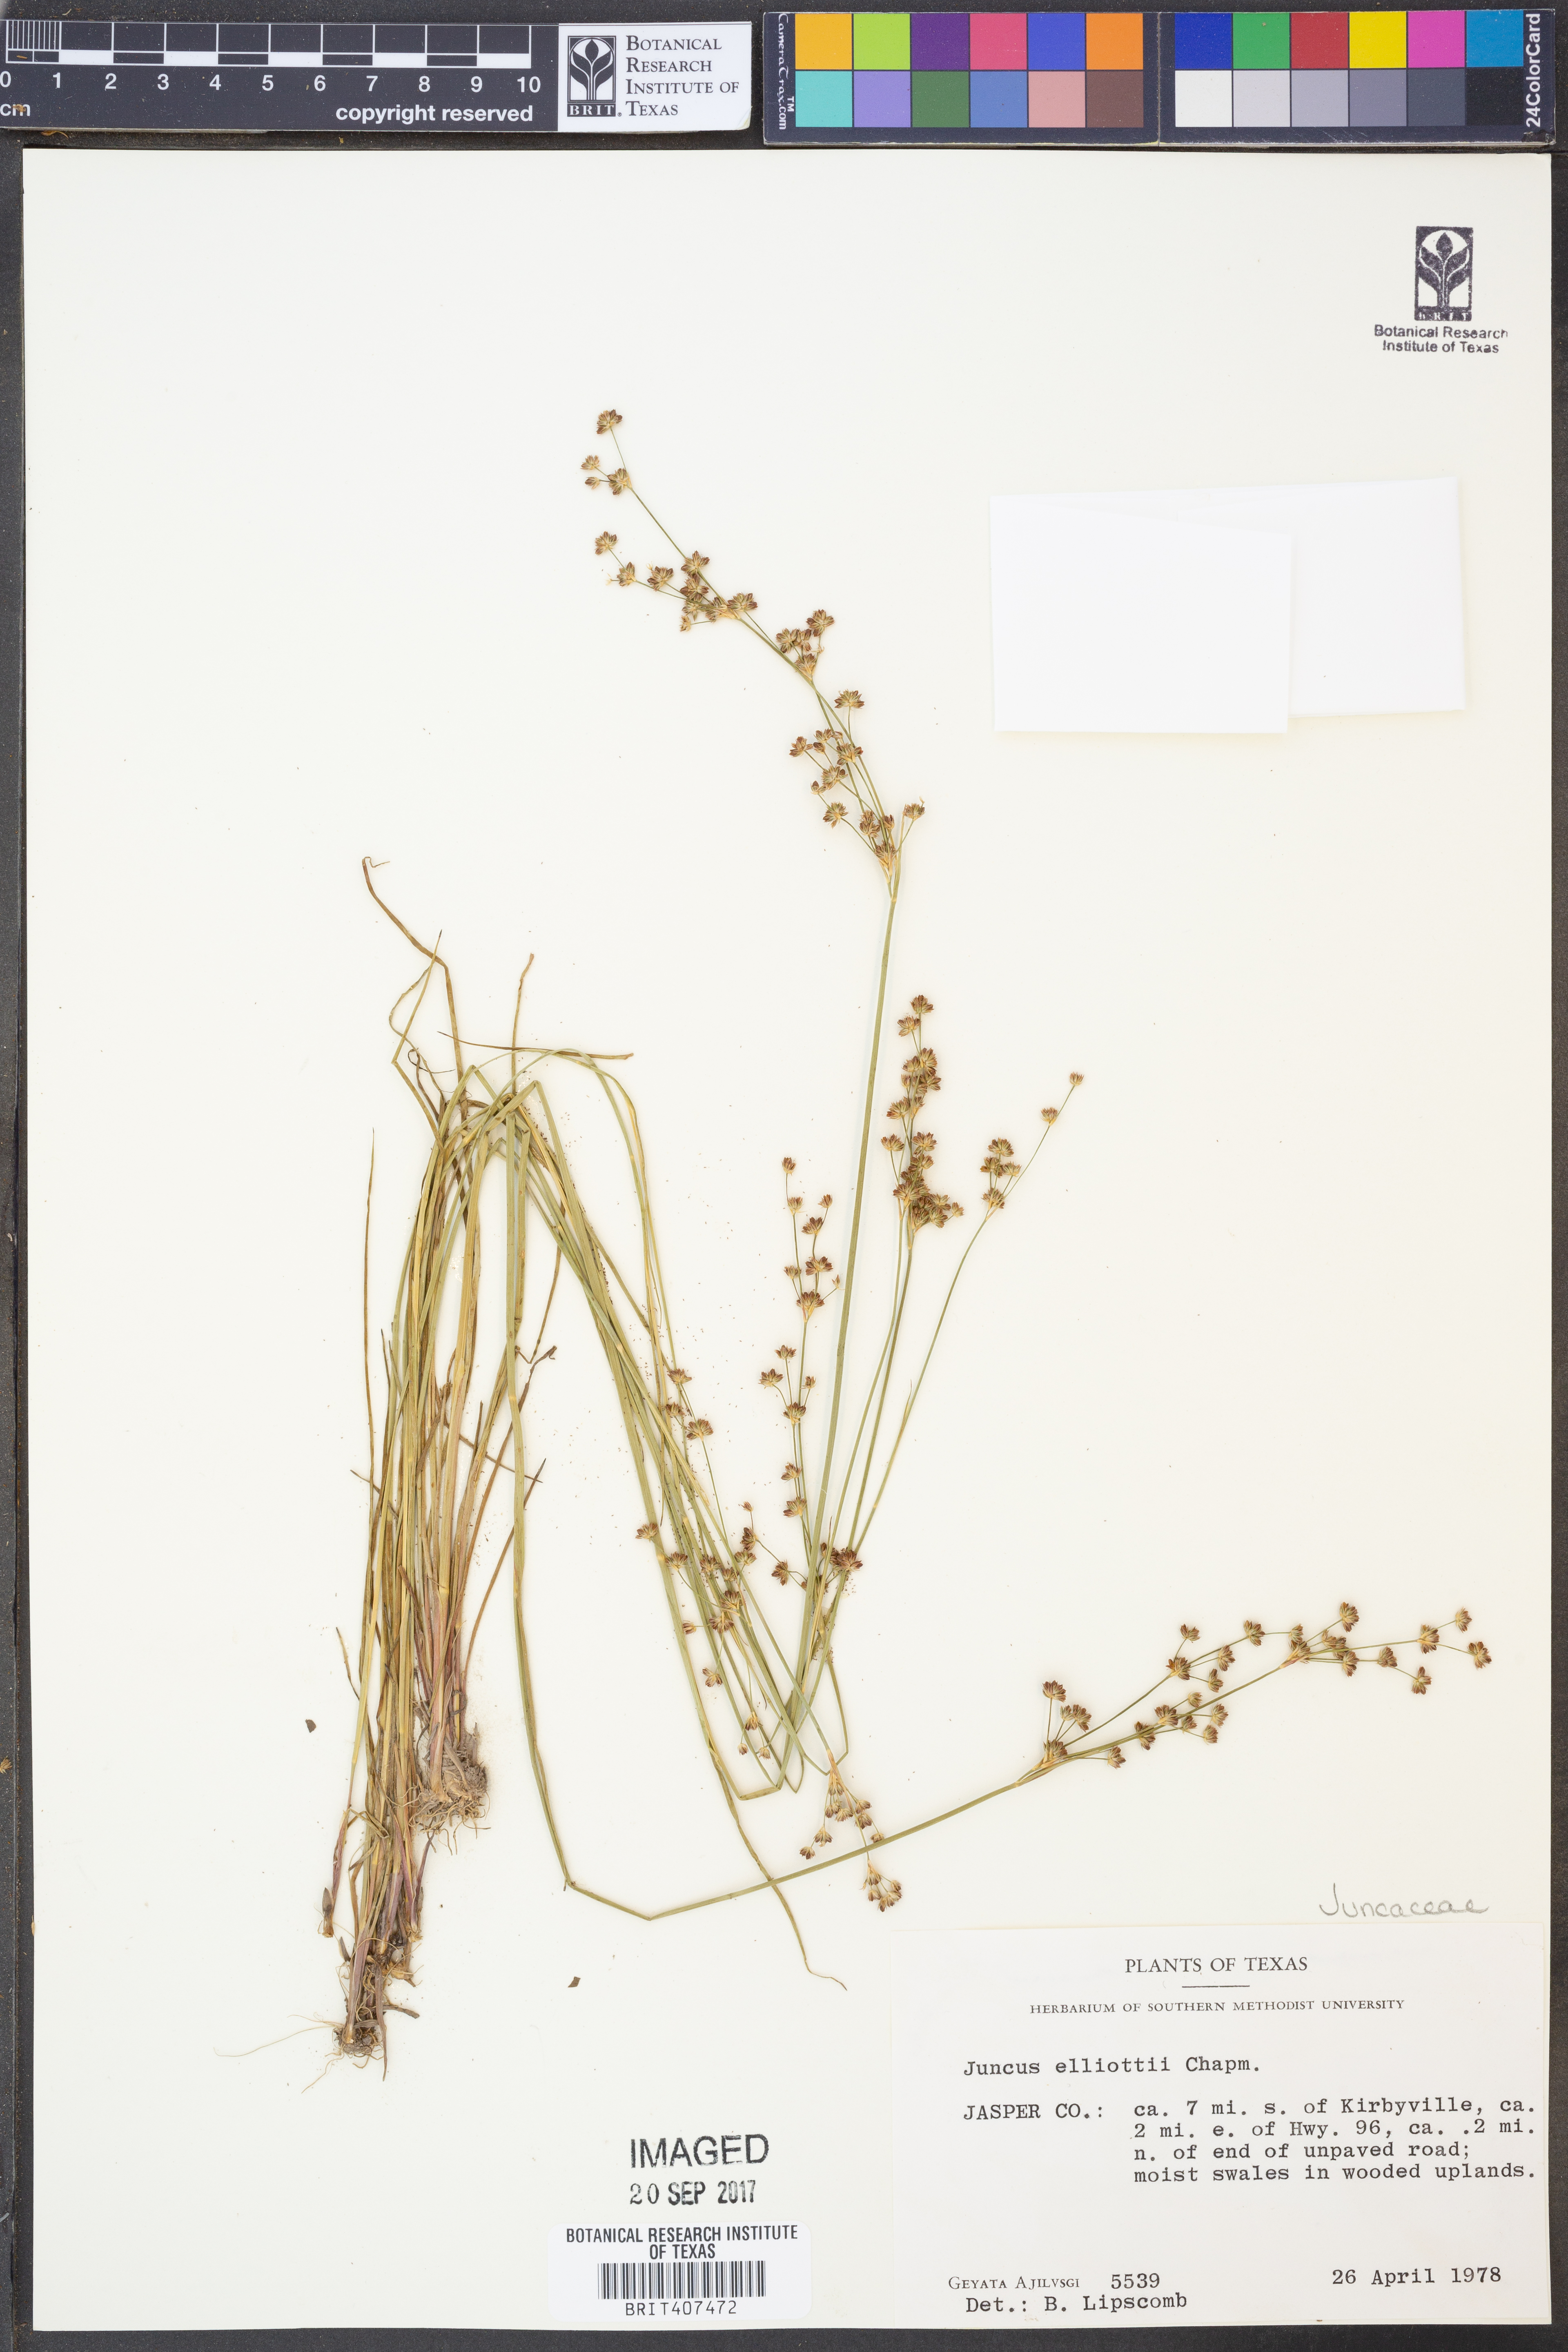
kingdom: Plantae
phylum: Tracheophyta
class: Liliopsida
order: Poales
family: Juncaceae
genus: Juncus
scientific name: Juncus elliottii
